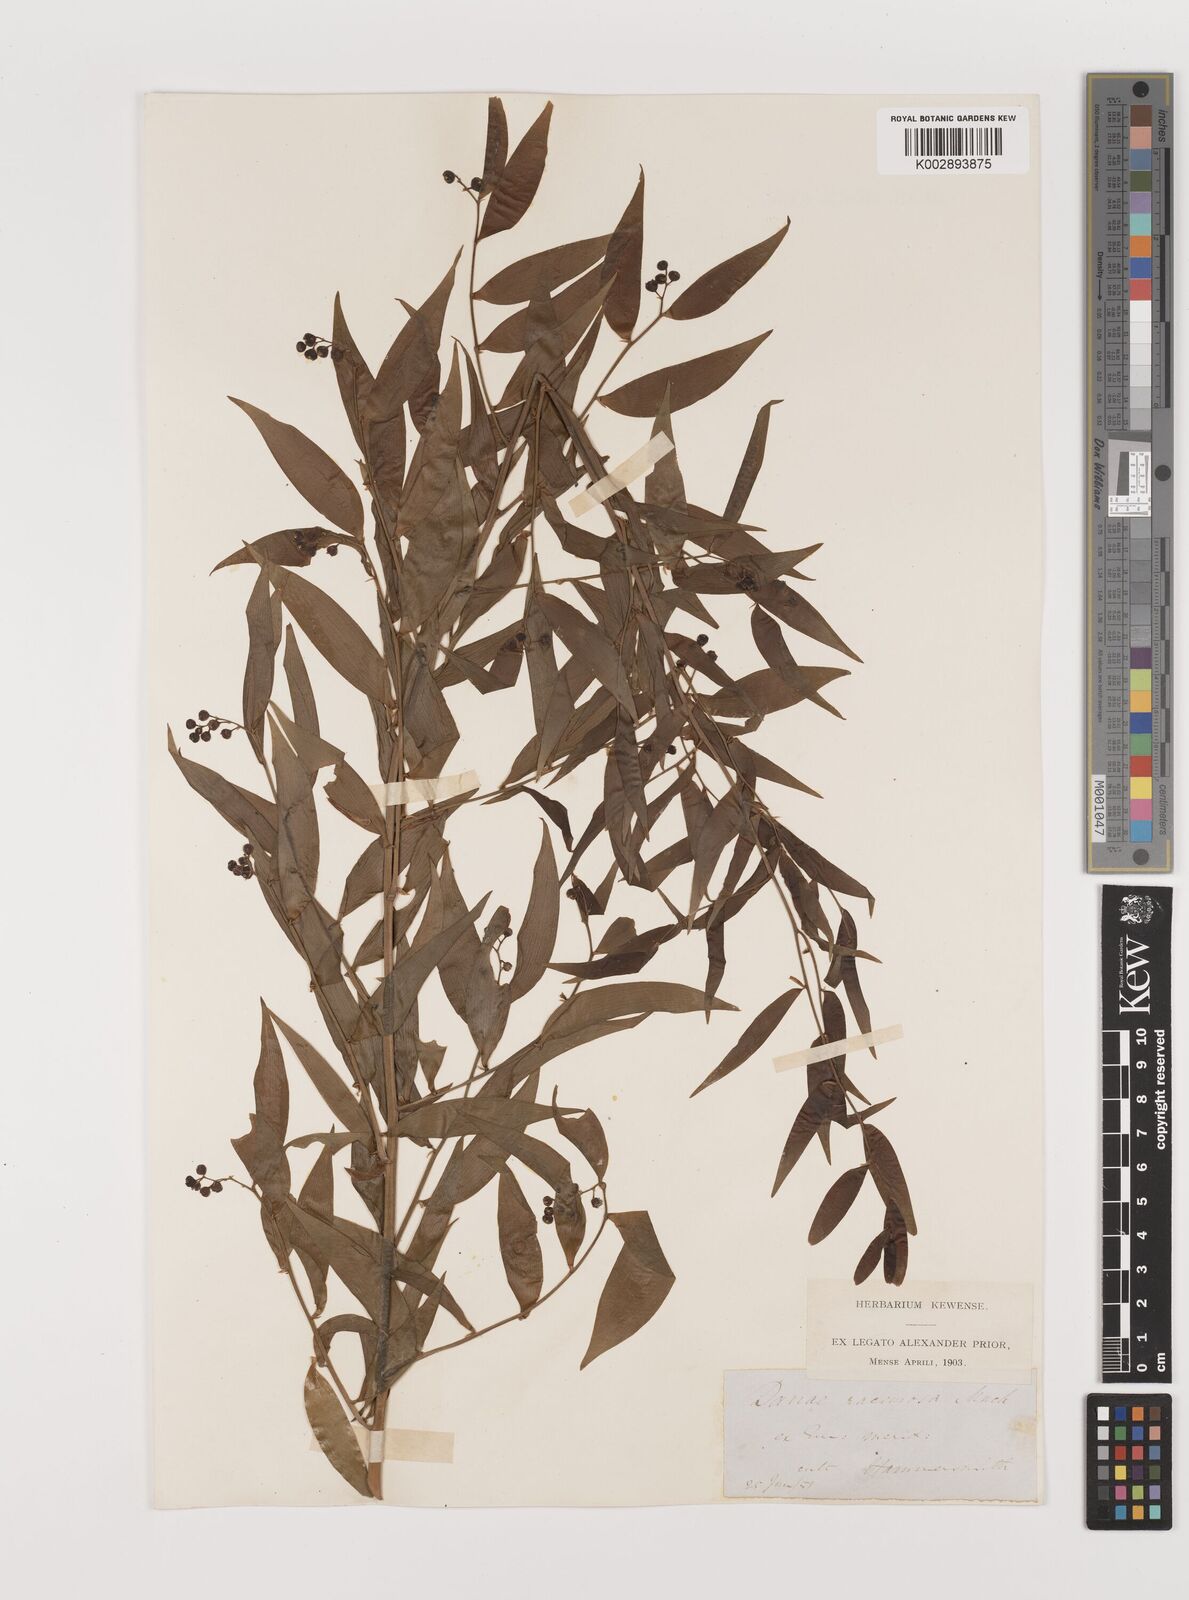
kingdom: Plantae
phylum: Tracheophyta
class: Liliopsida
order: Asparagales
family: Asparagaceae
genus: Danae
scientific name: Danae
